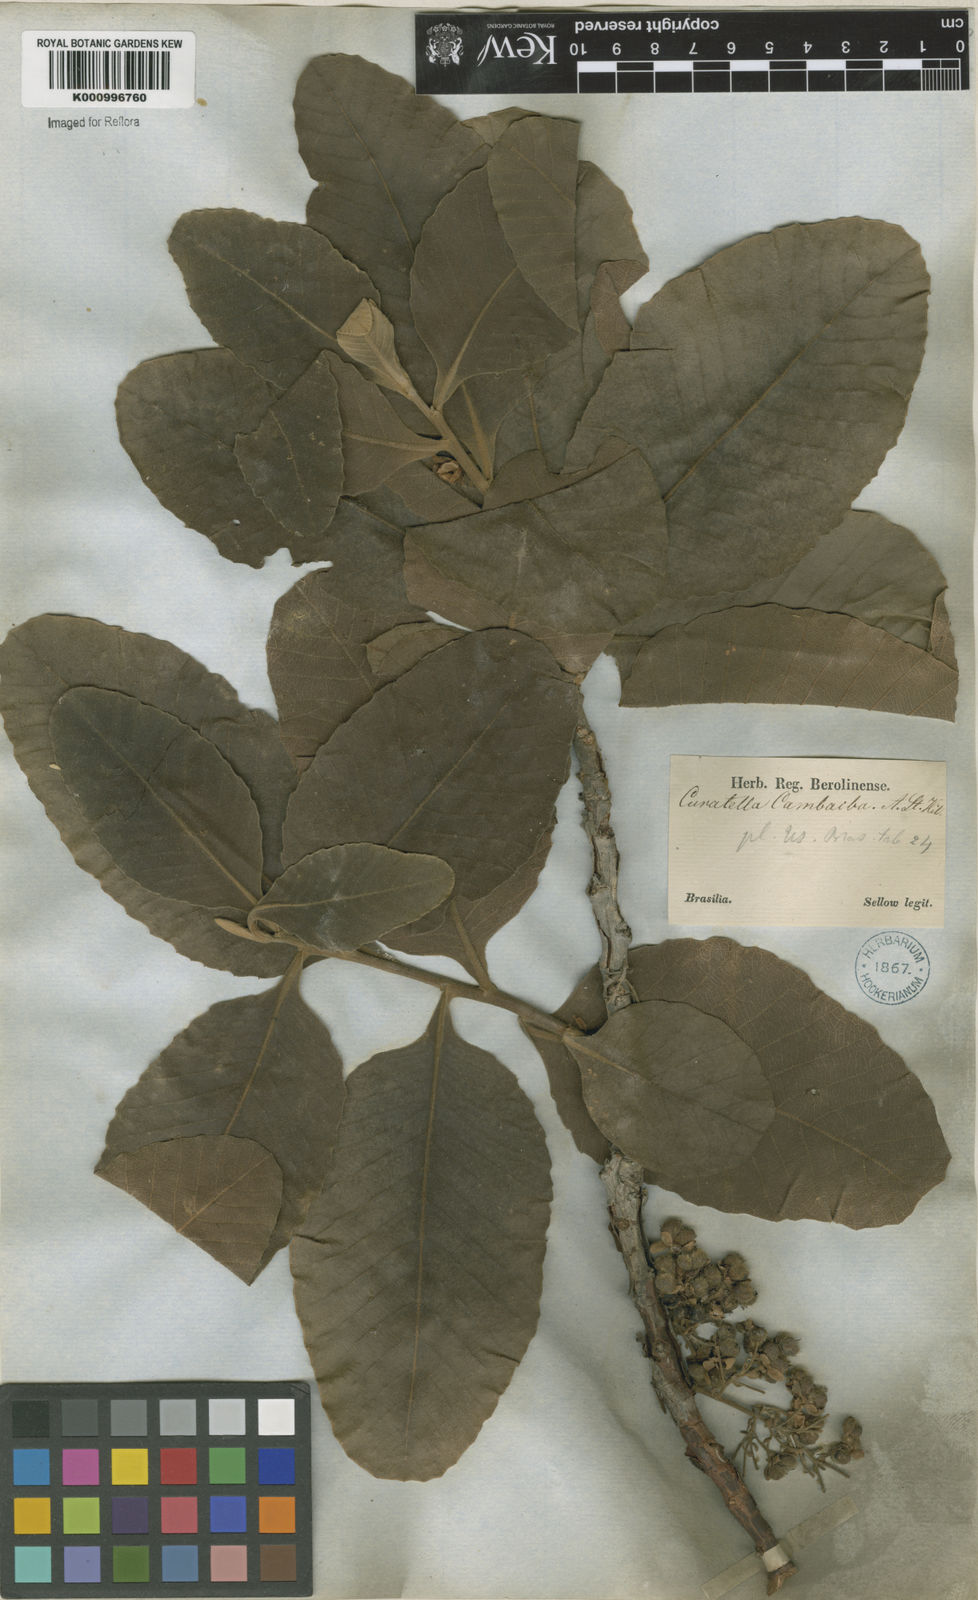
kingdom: Plantae
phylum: Tracheophyta
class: Magnoliopsida
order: Dilleniales
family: Dilleniaceae
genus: Curatella
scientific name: Curatella americana
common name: Sandpaper tree
